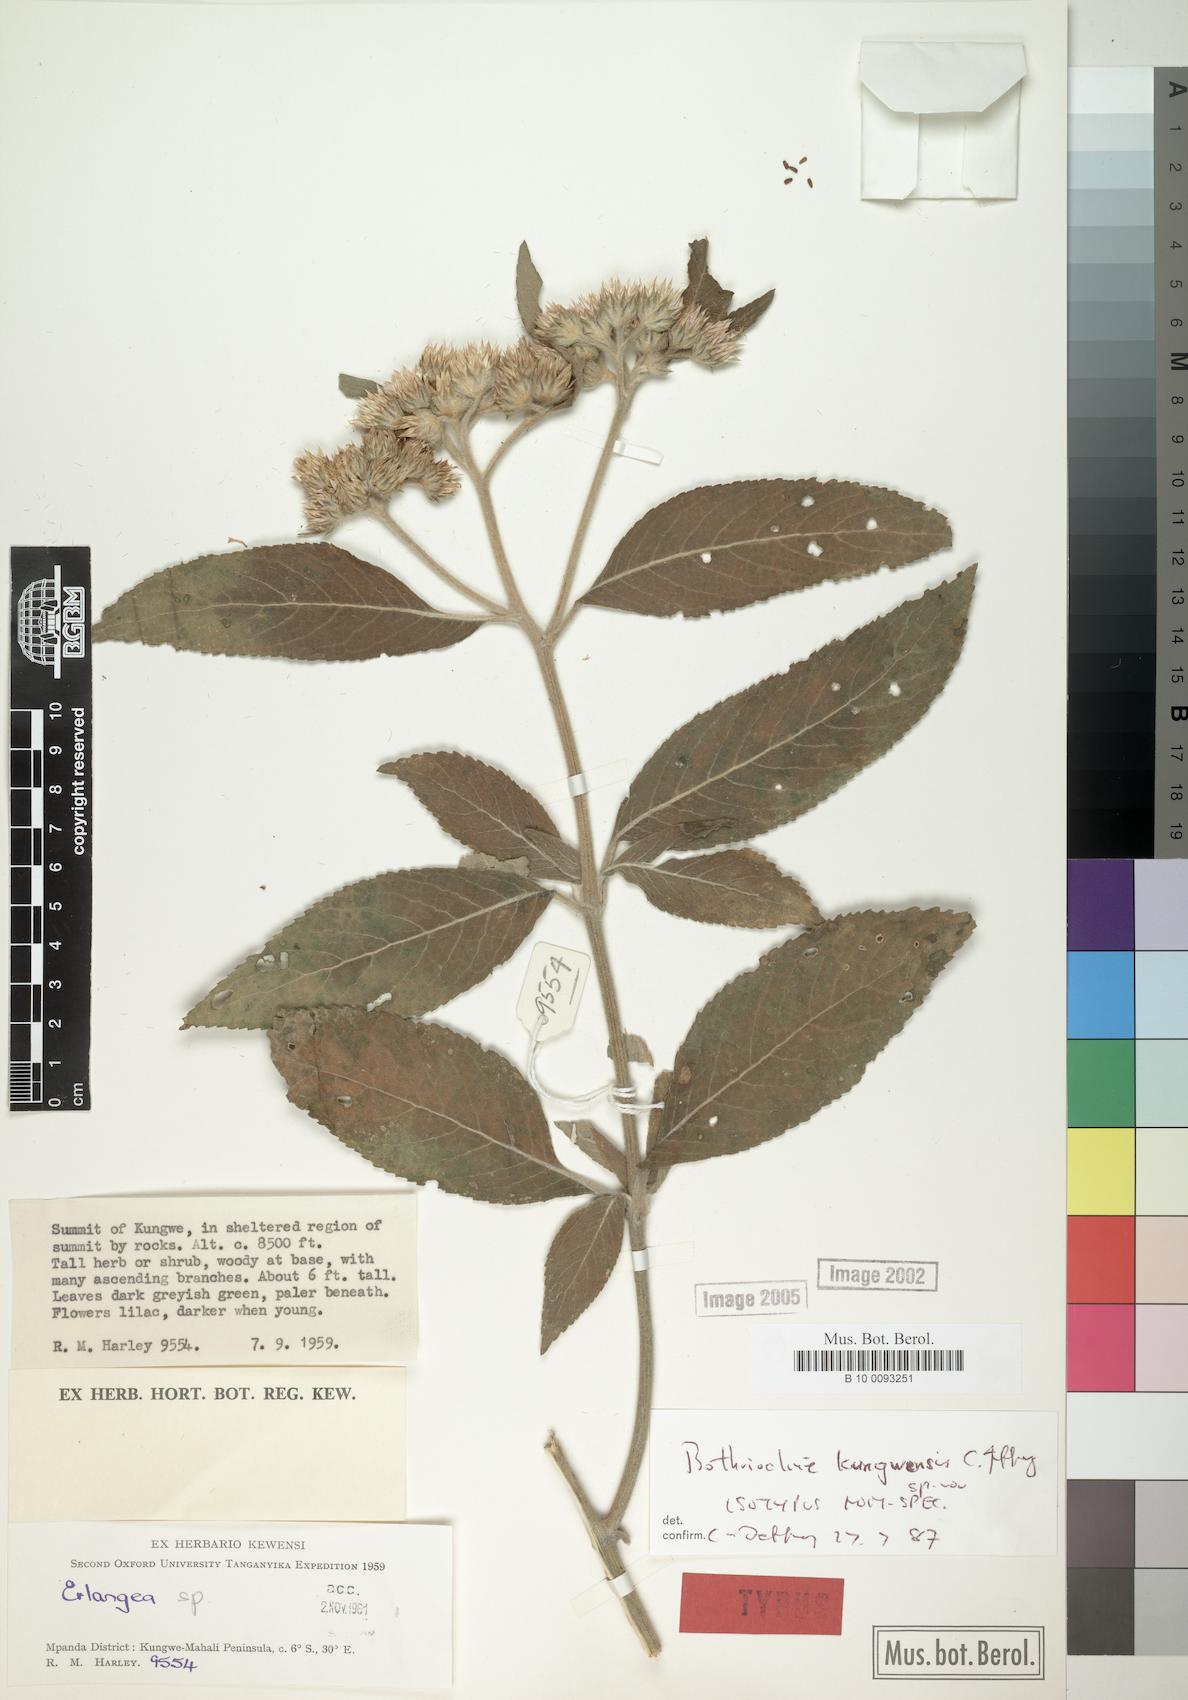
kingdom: Plantae
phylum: Tracheophyta
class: Magnoliopsida
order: Asterales
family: Asteraceae
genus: Bothriocline
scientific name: Bothriocline kungwensis
